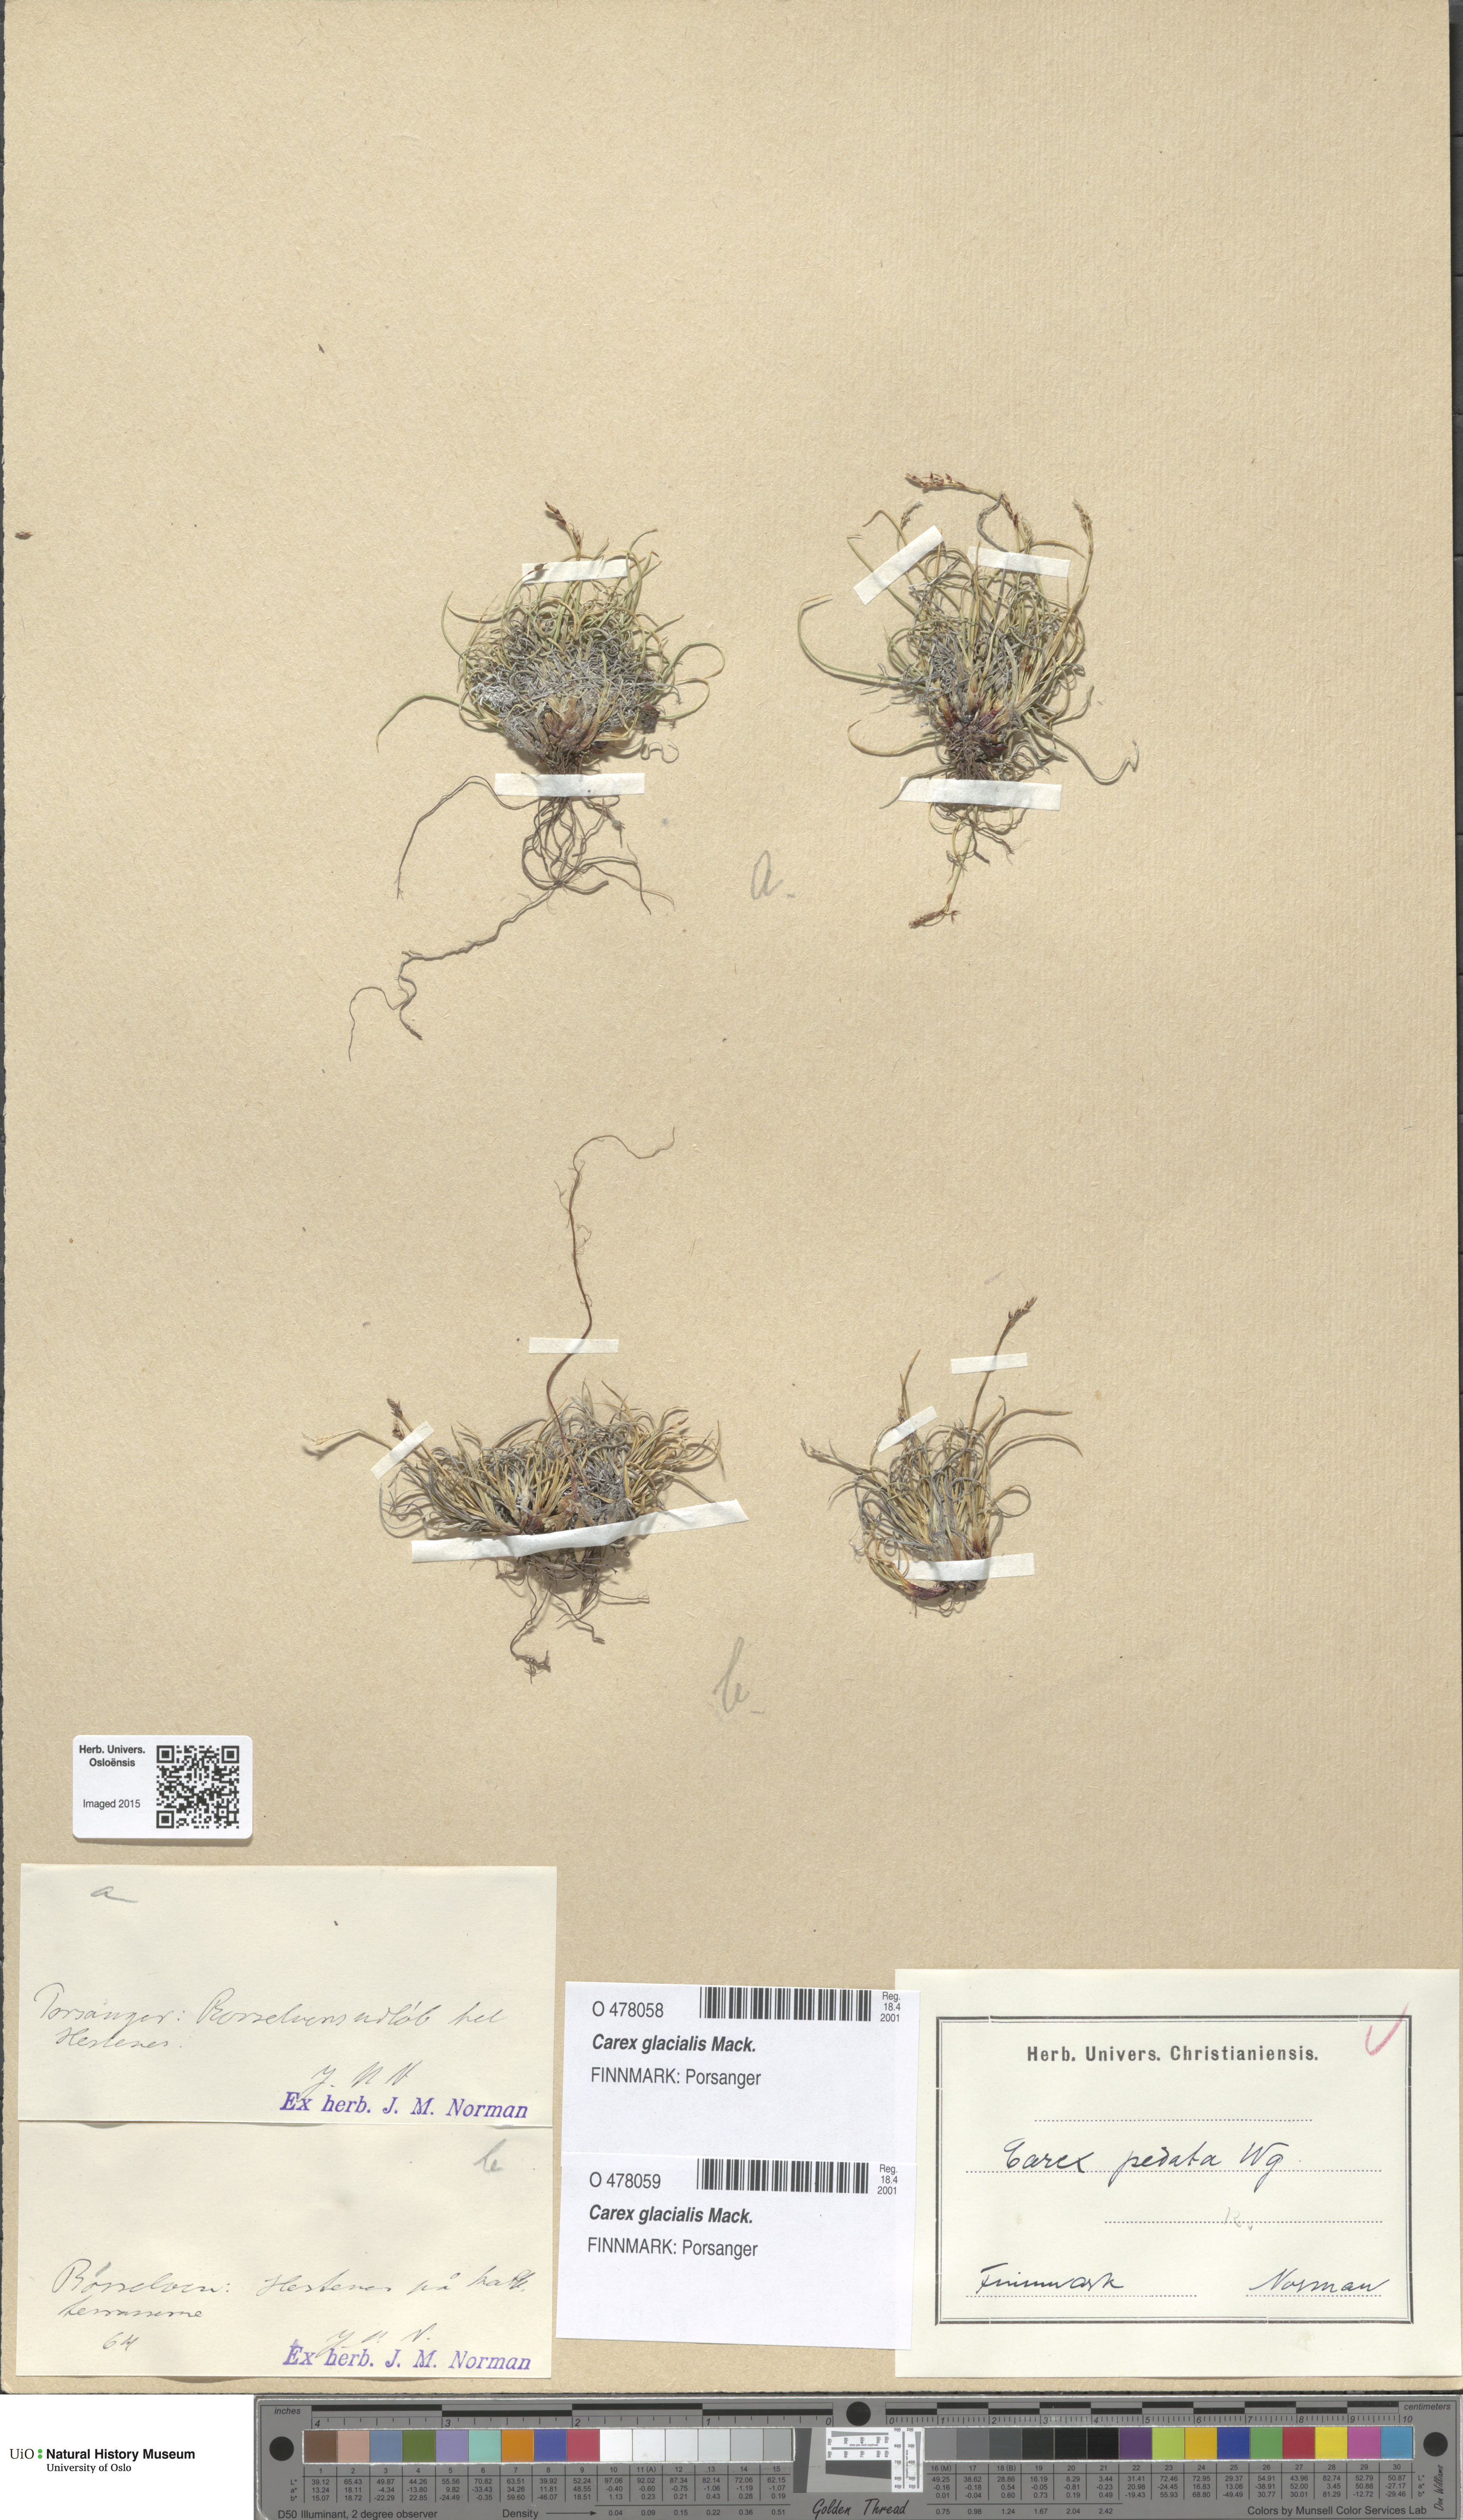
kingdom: Plantae
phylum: Tracheophyta
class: Liliopsida
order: Poales
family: Cyperaceae
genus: Carex
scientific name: Carex glacialis
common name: Newfoundland sedge
